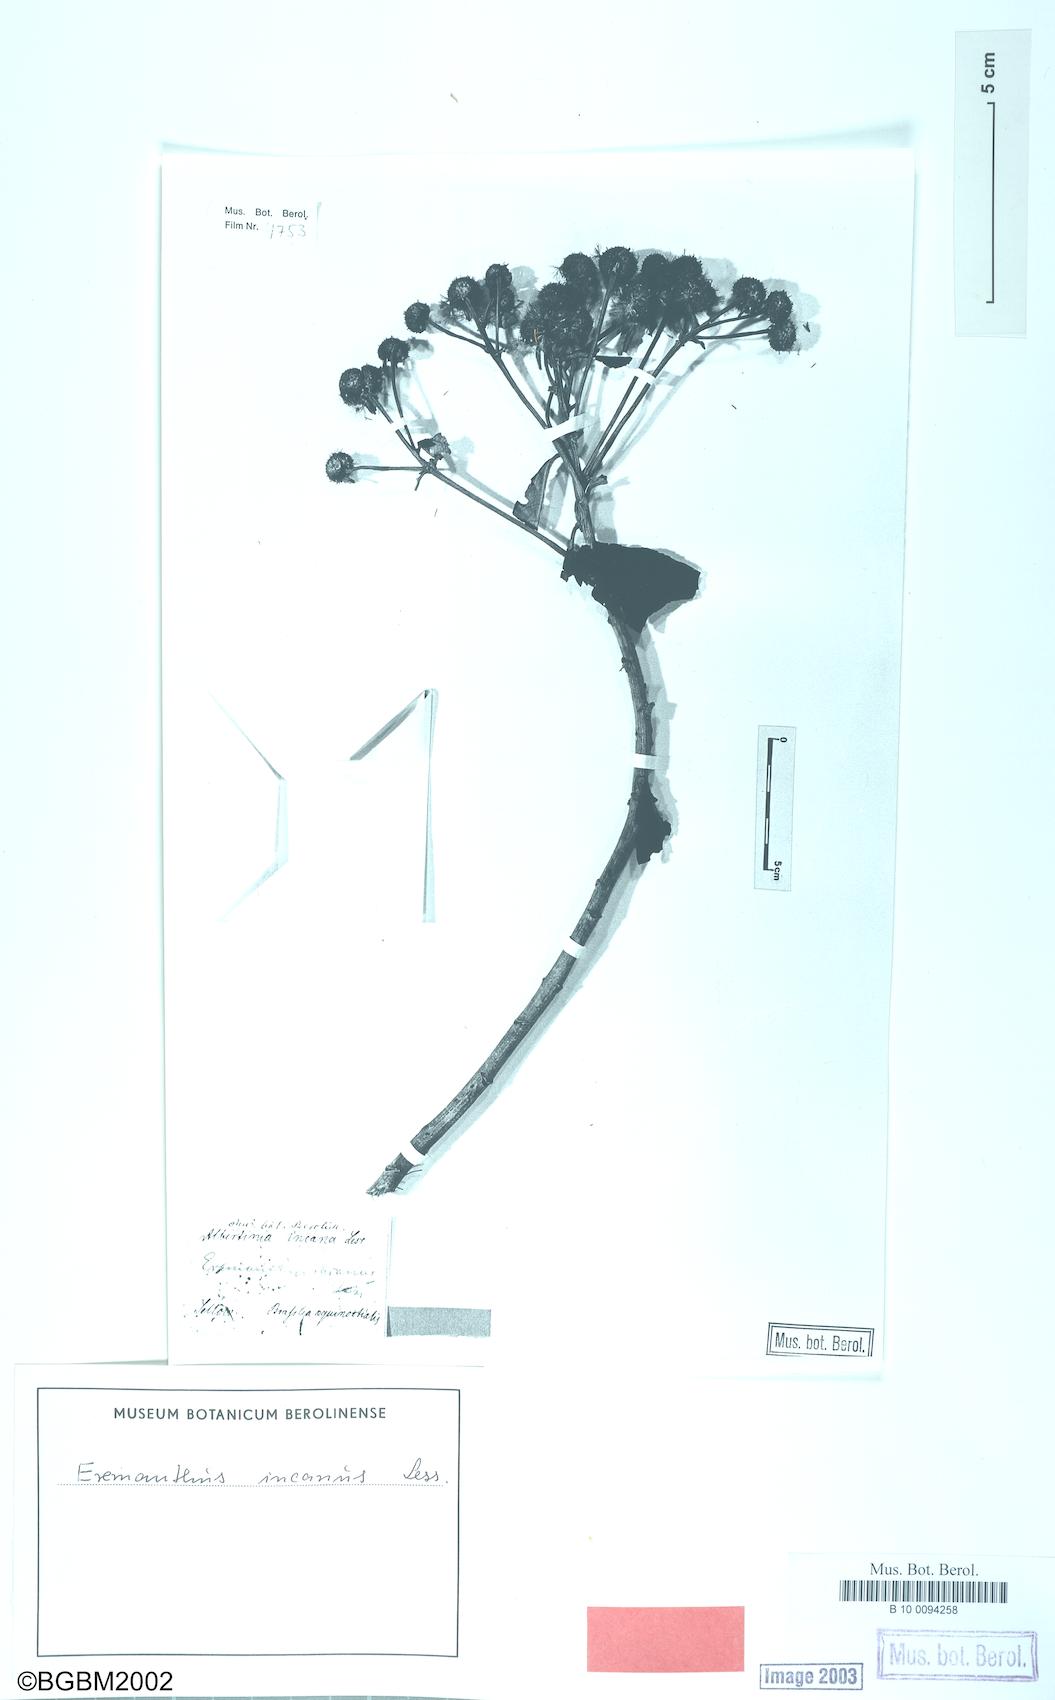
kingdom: Plantae
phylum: Tracheophyta
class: Magnoliopsida
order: Asterales
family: Asteraceae
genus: Lychnophora
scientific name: Lychnophora rosmarinifolia
